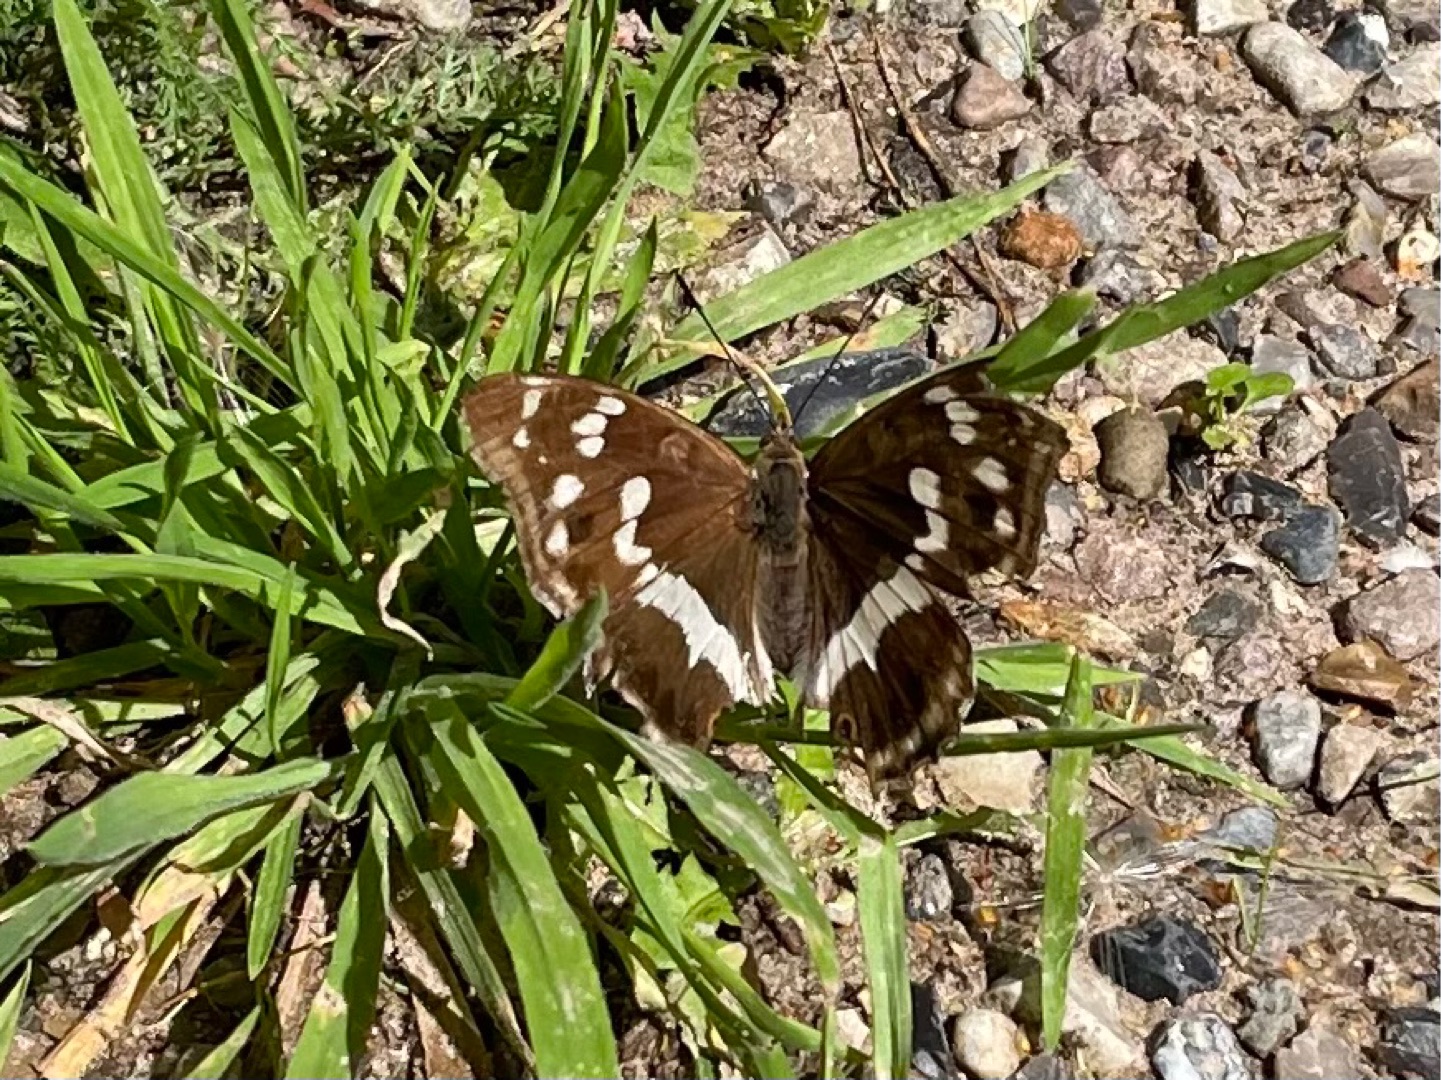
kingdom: Animalia
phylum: Arthropoda
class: Insecta
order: Lepidoptera
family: Nymphalidae
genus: Apatura
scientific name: Apatura iris
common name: Iris
